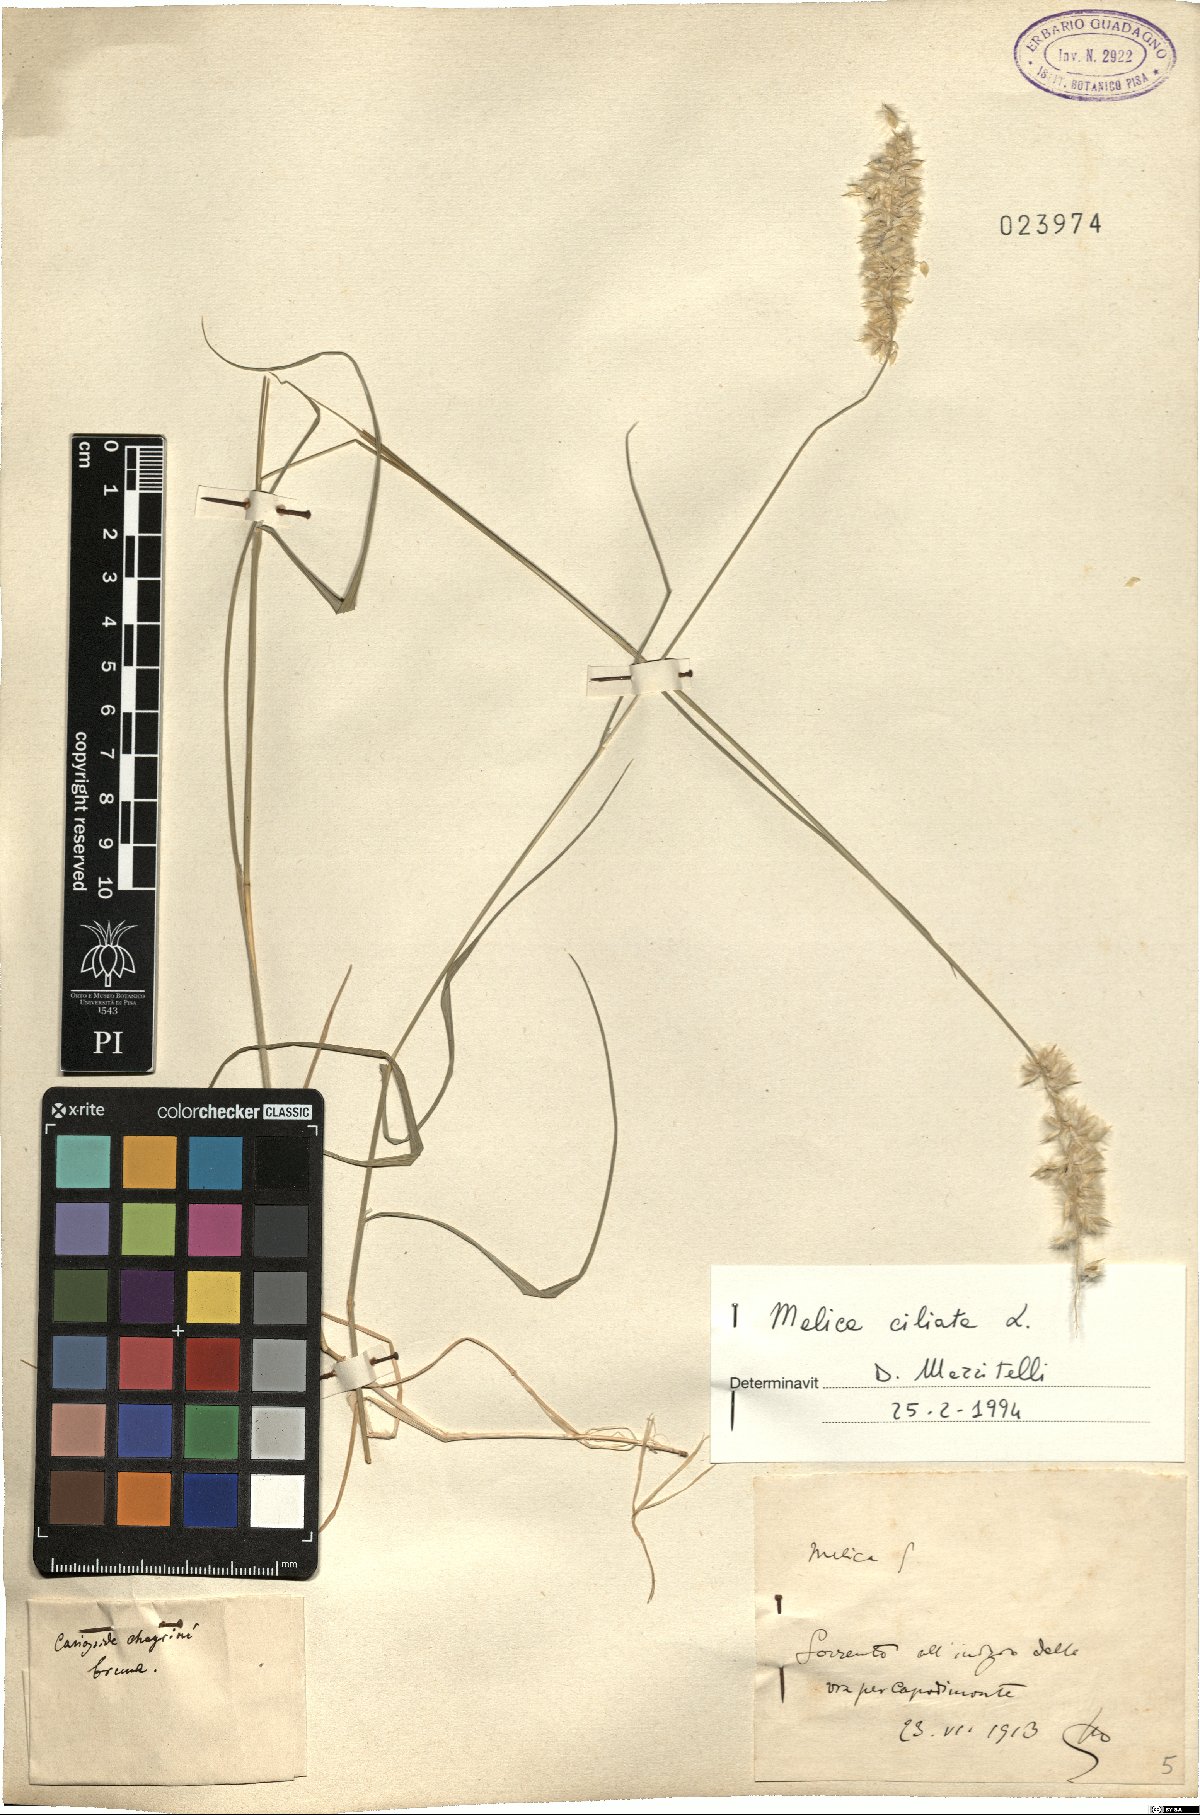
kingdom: Plantae
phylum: Tracheophyta
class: Liliopsida
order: Poales
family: Poaceae
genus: Melica
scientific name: Melica ciliata
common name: Hairy melicgrass
